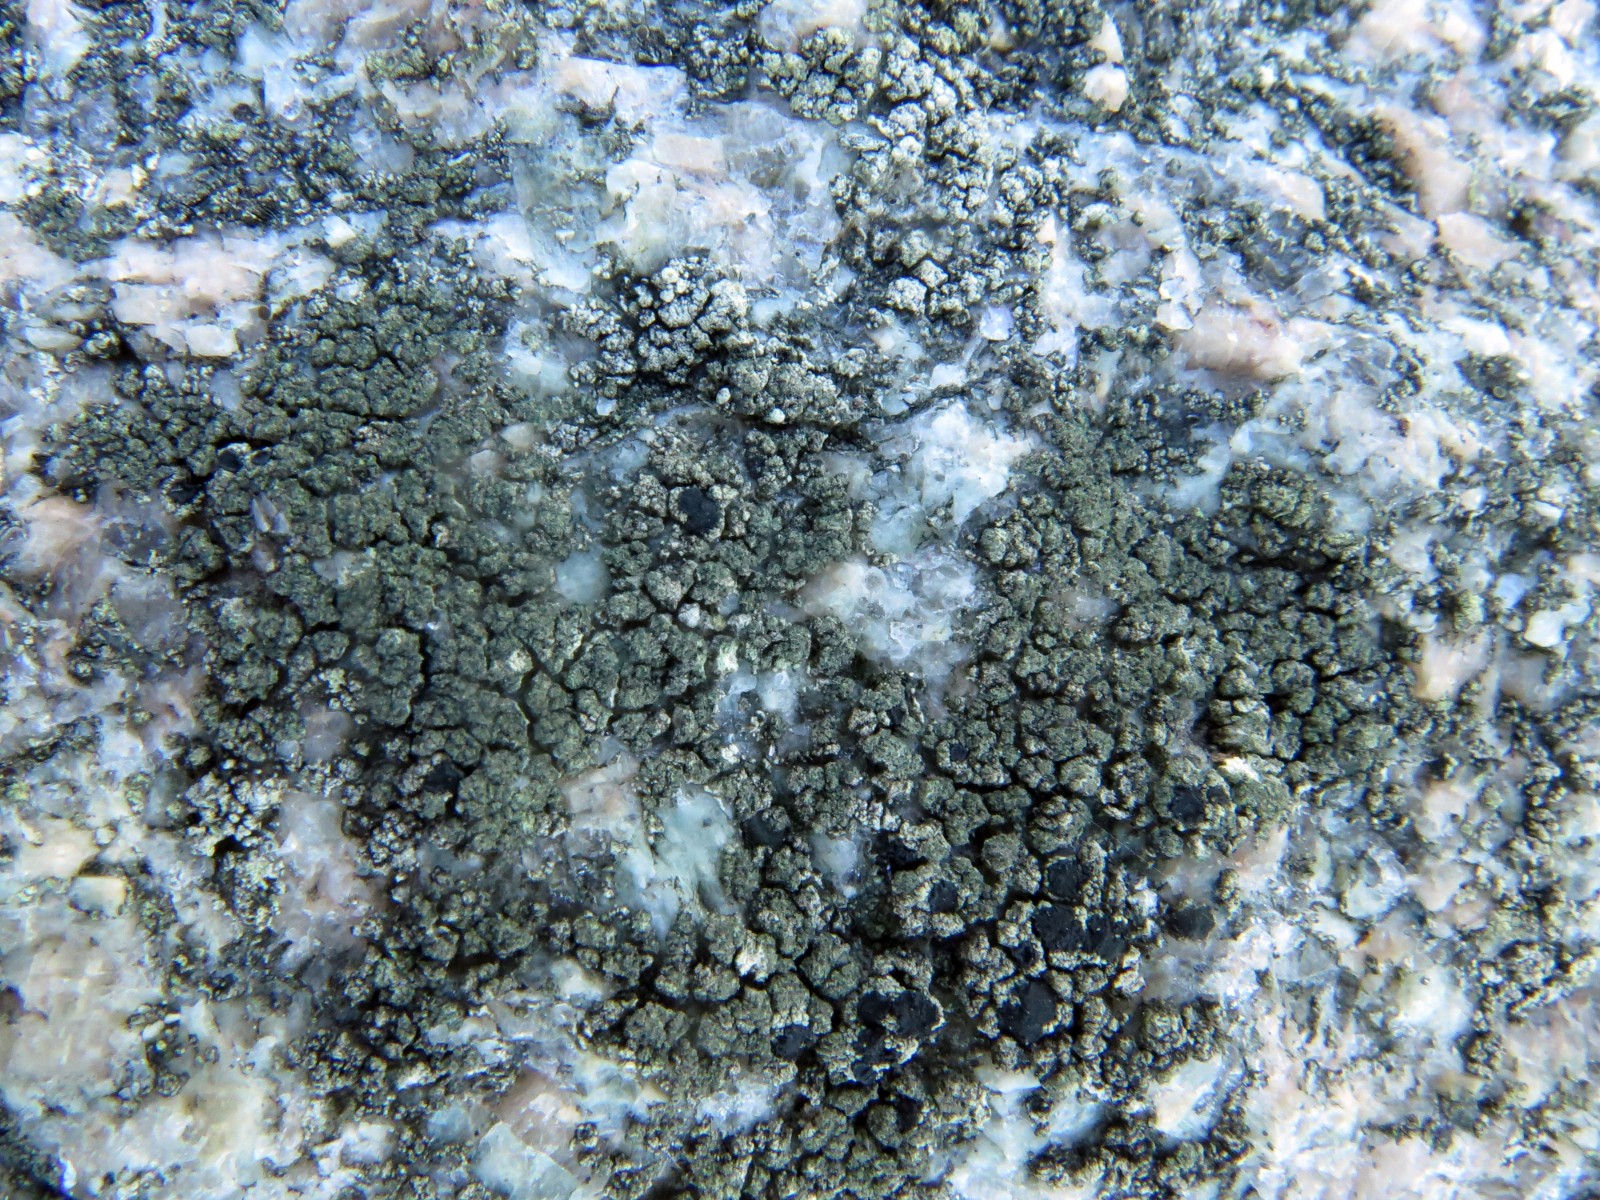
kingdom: Fungi
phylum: Ascomycota
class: Lecanoromycetes
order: Lecanorales
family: Lecanoraceae
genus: Lecidella
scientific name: Lecidella scabra
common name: skurvet skivelav
